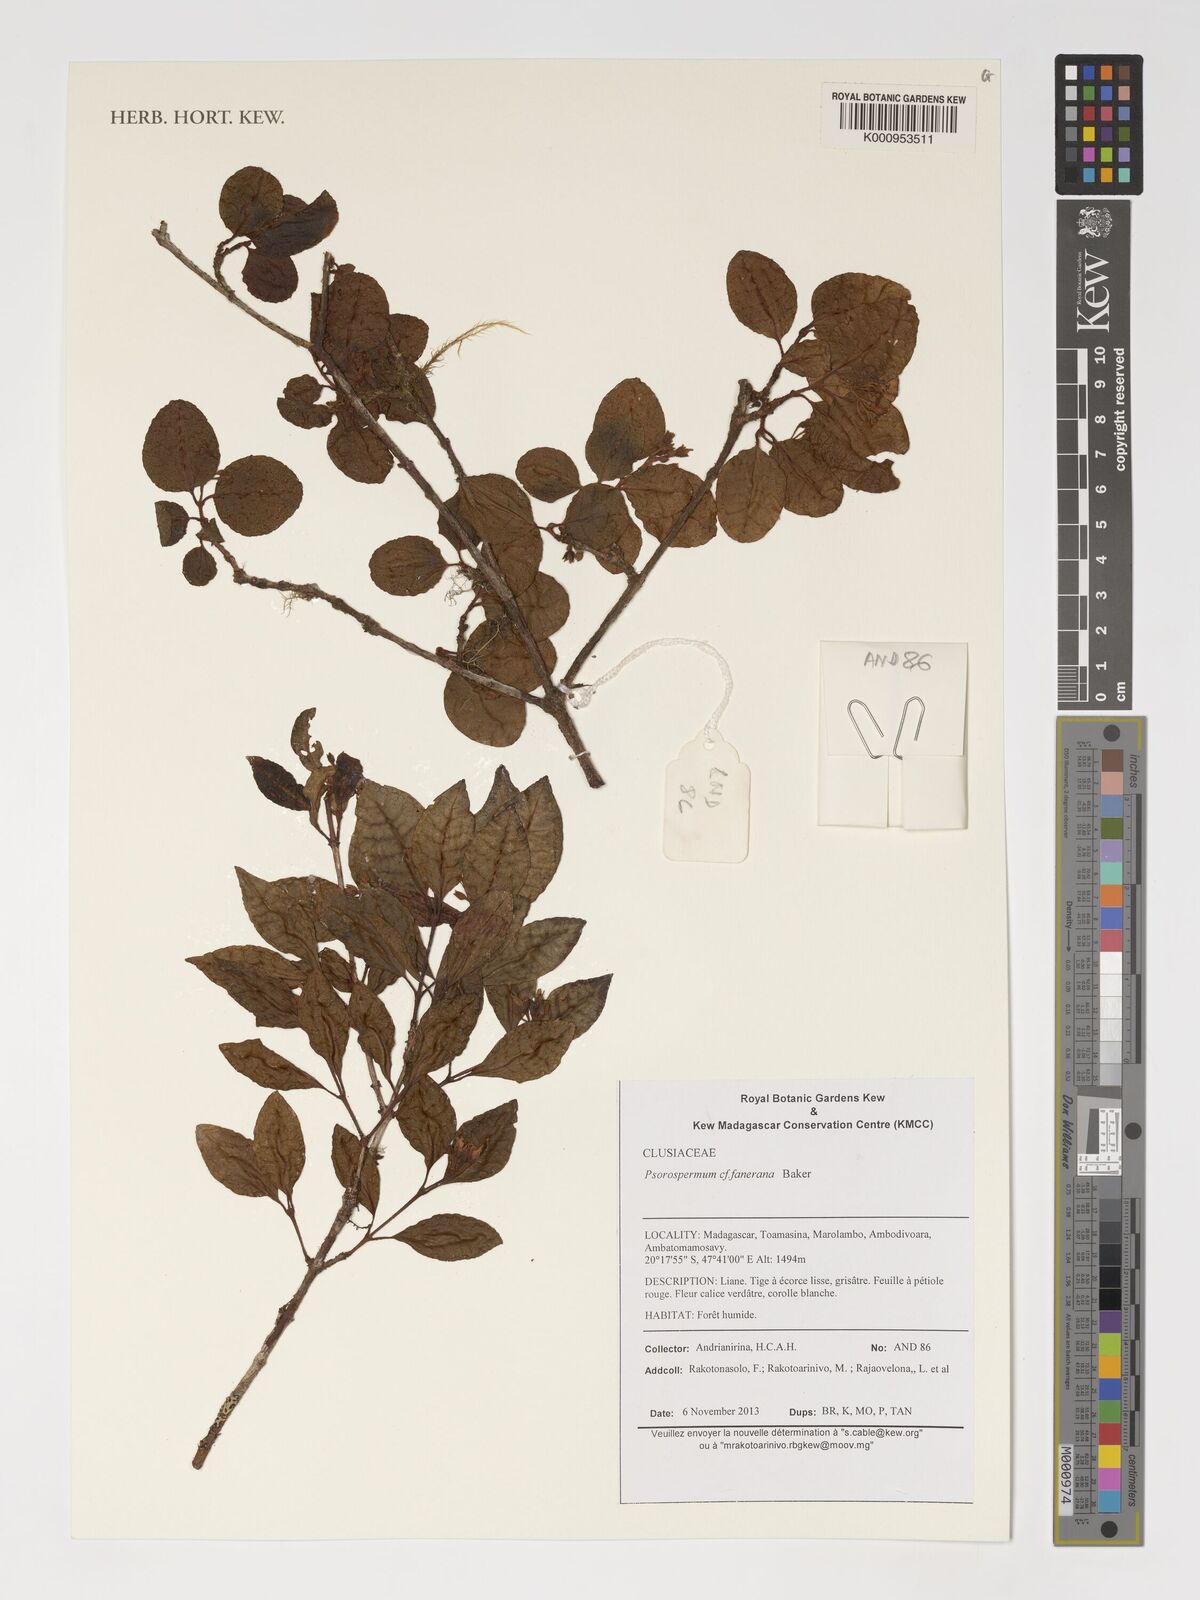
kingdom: Plantae
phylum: Tracheophyta
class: Magnoliopsida
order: Malpighiales
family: Hypericaceae
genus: Psorospermum
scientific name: Psorospermum fanerana
